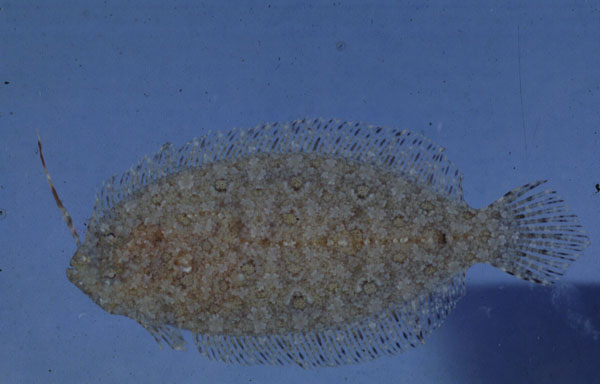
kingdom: Animalia
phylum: Chordata
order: Pleuronectiformes
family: Bothidae
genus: Asterorhombus
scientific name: Asterorhombus filifer
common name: Longlure flounder
